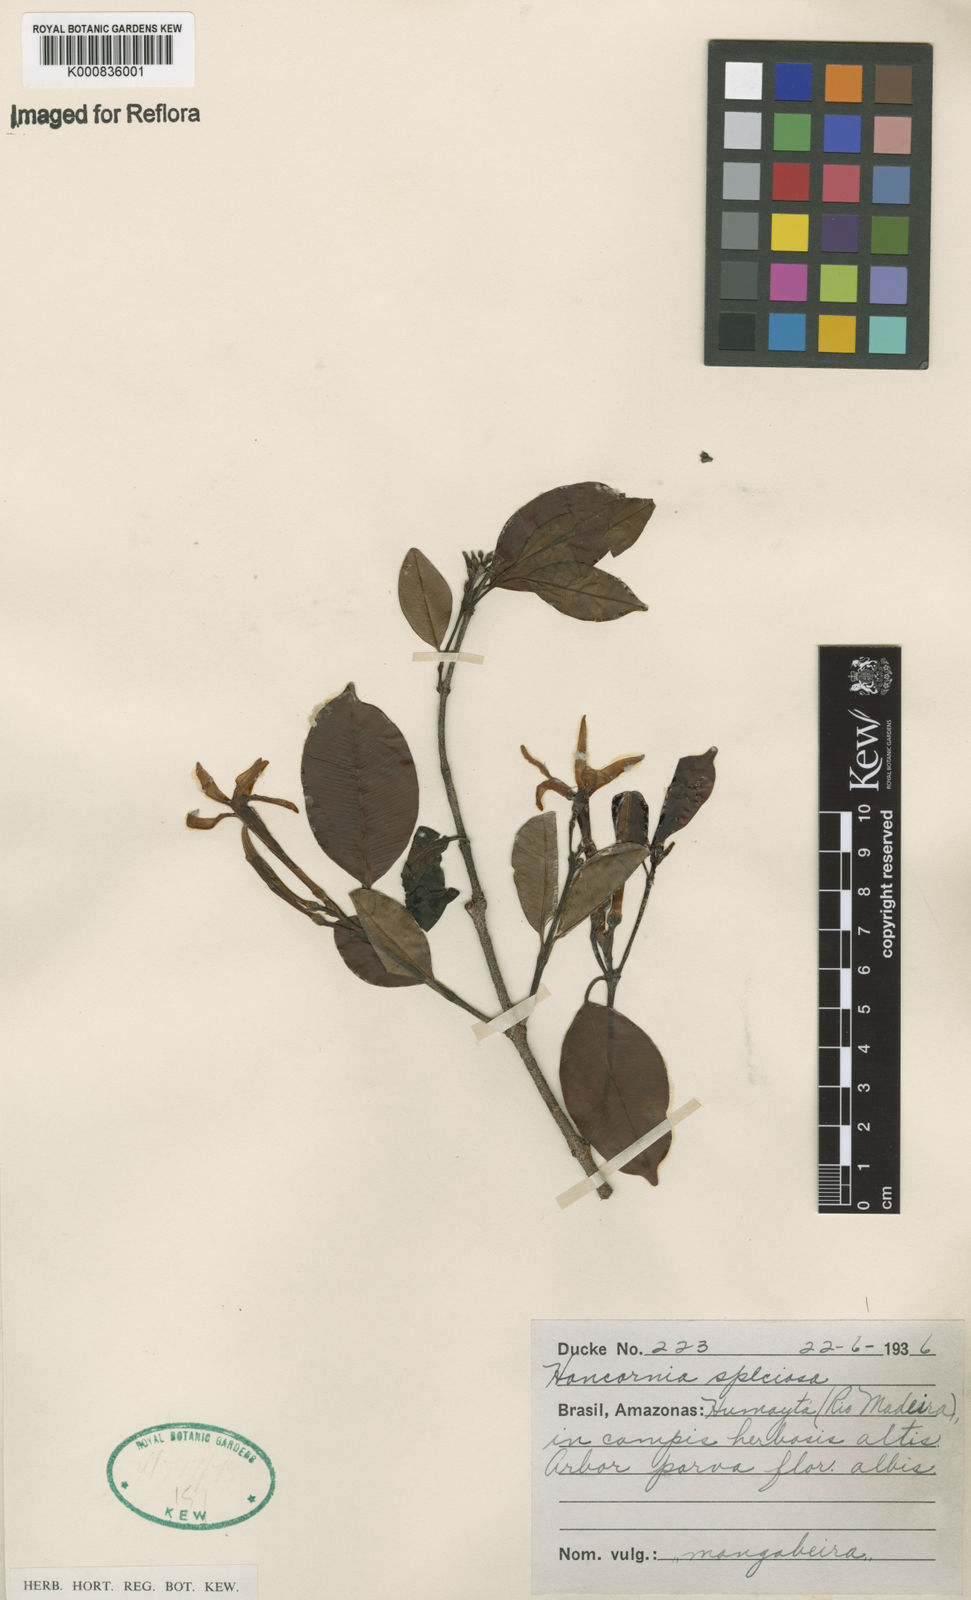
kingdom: Plantae
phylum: Tracheophyta
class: Magnoliopsida
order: Gentianales
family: Apocynaceae
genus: Hancornia
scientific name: Hancornia speciosa
